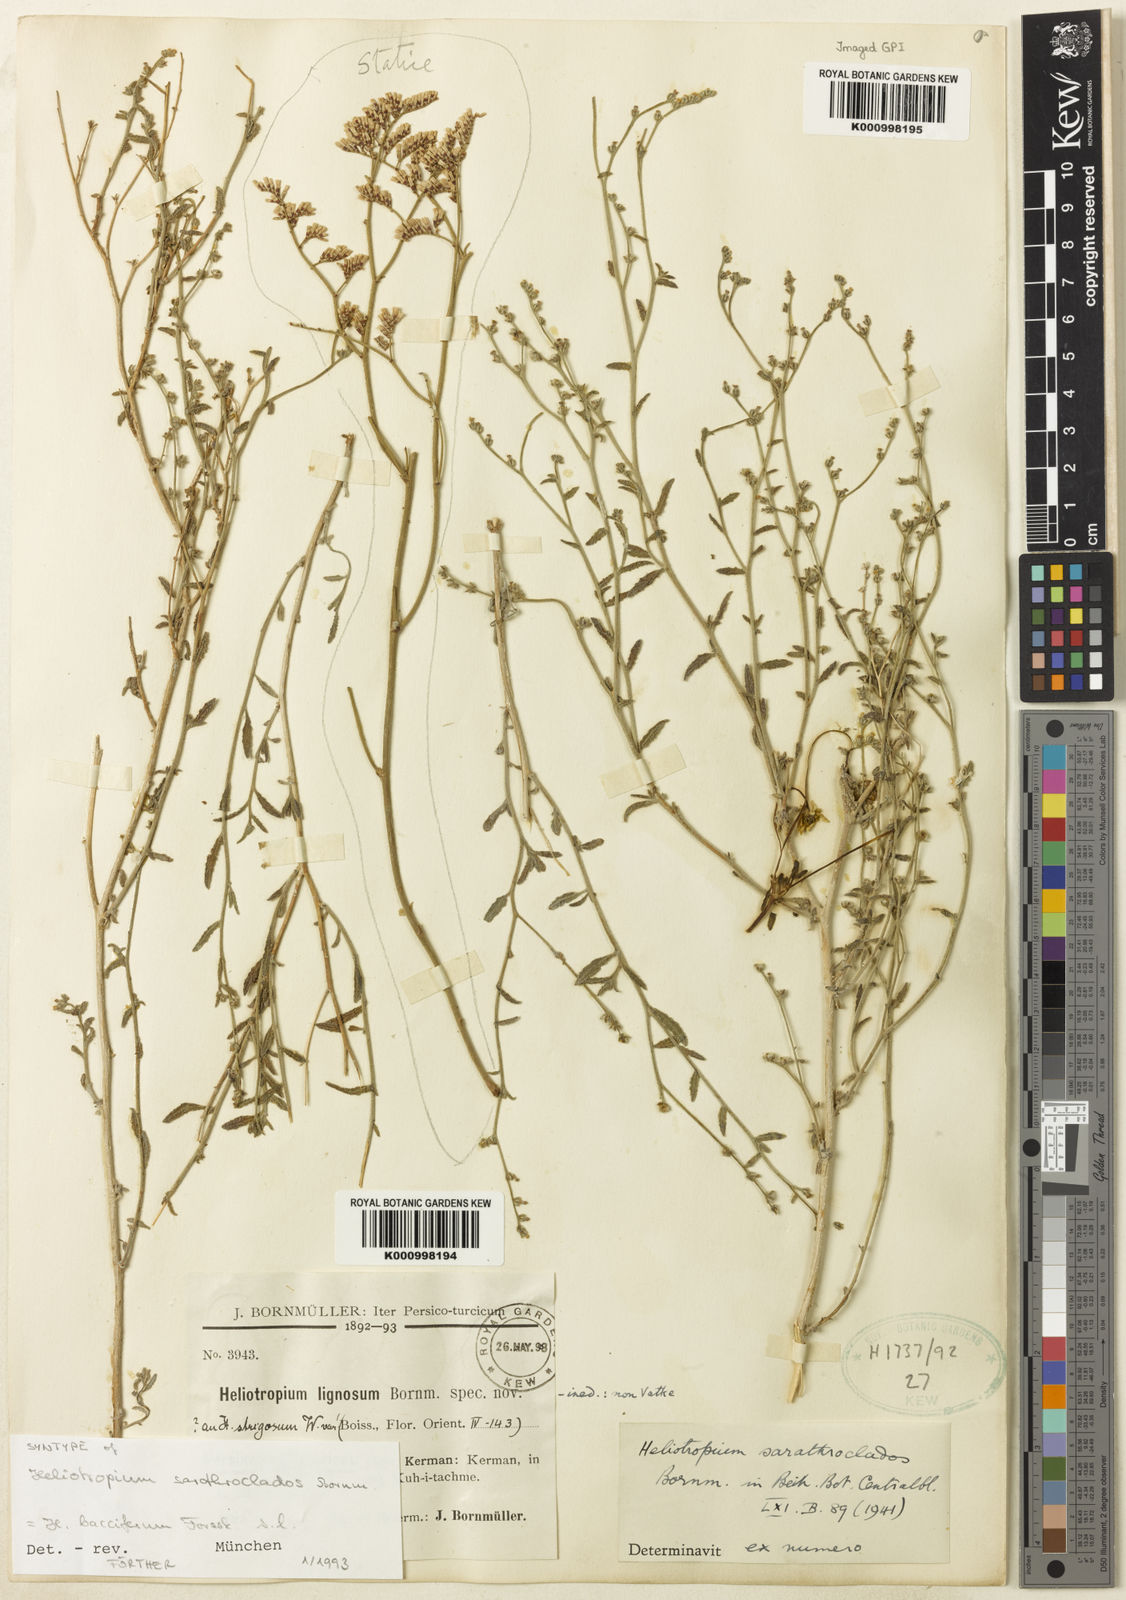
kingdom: Plantae
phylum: Tracheophyta
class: Magnoliopsida
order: Boraginales
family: Heliotropiaceae
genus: Heliotropium
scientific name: Heliotropium ramosissimum
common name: Wavy heliotrope
